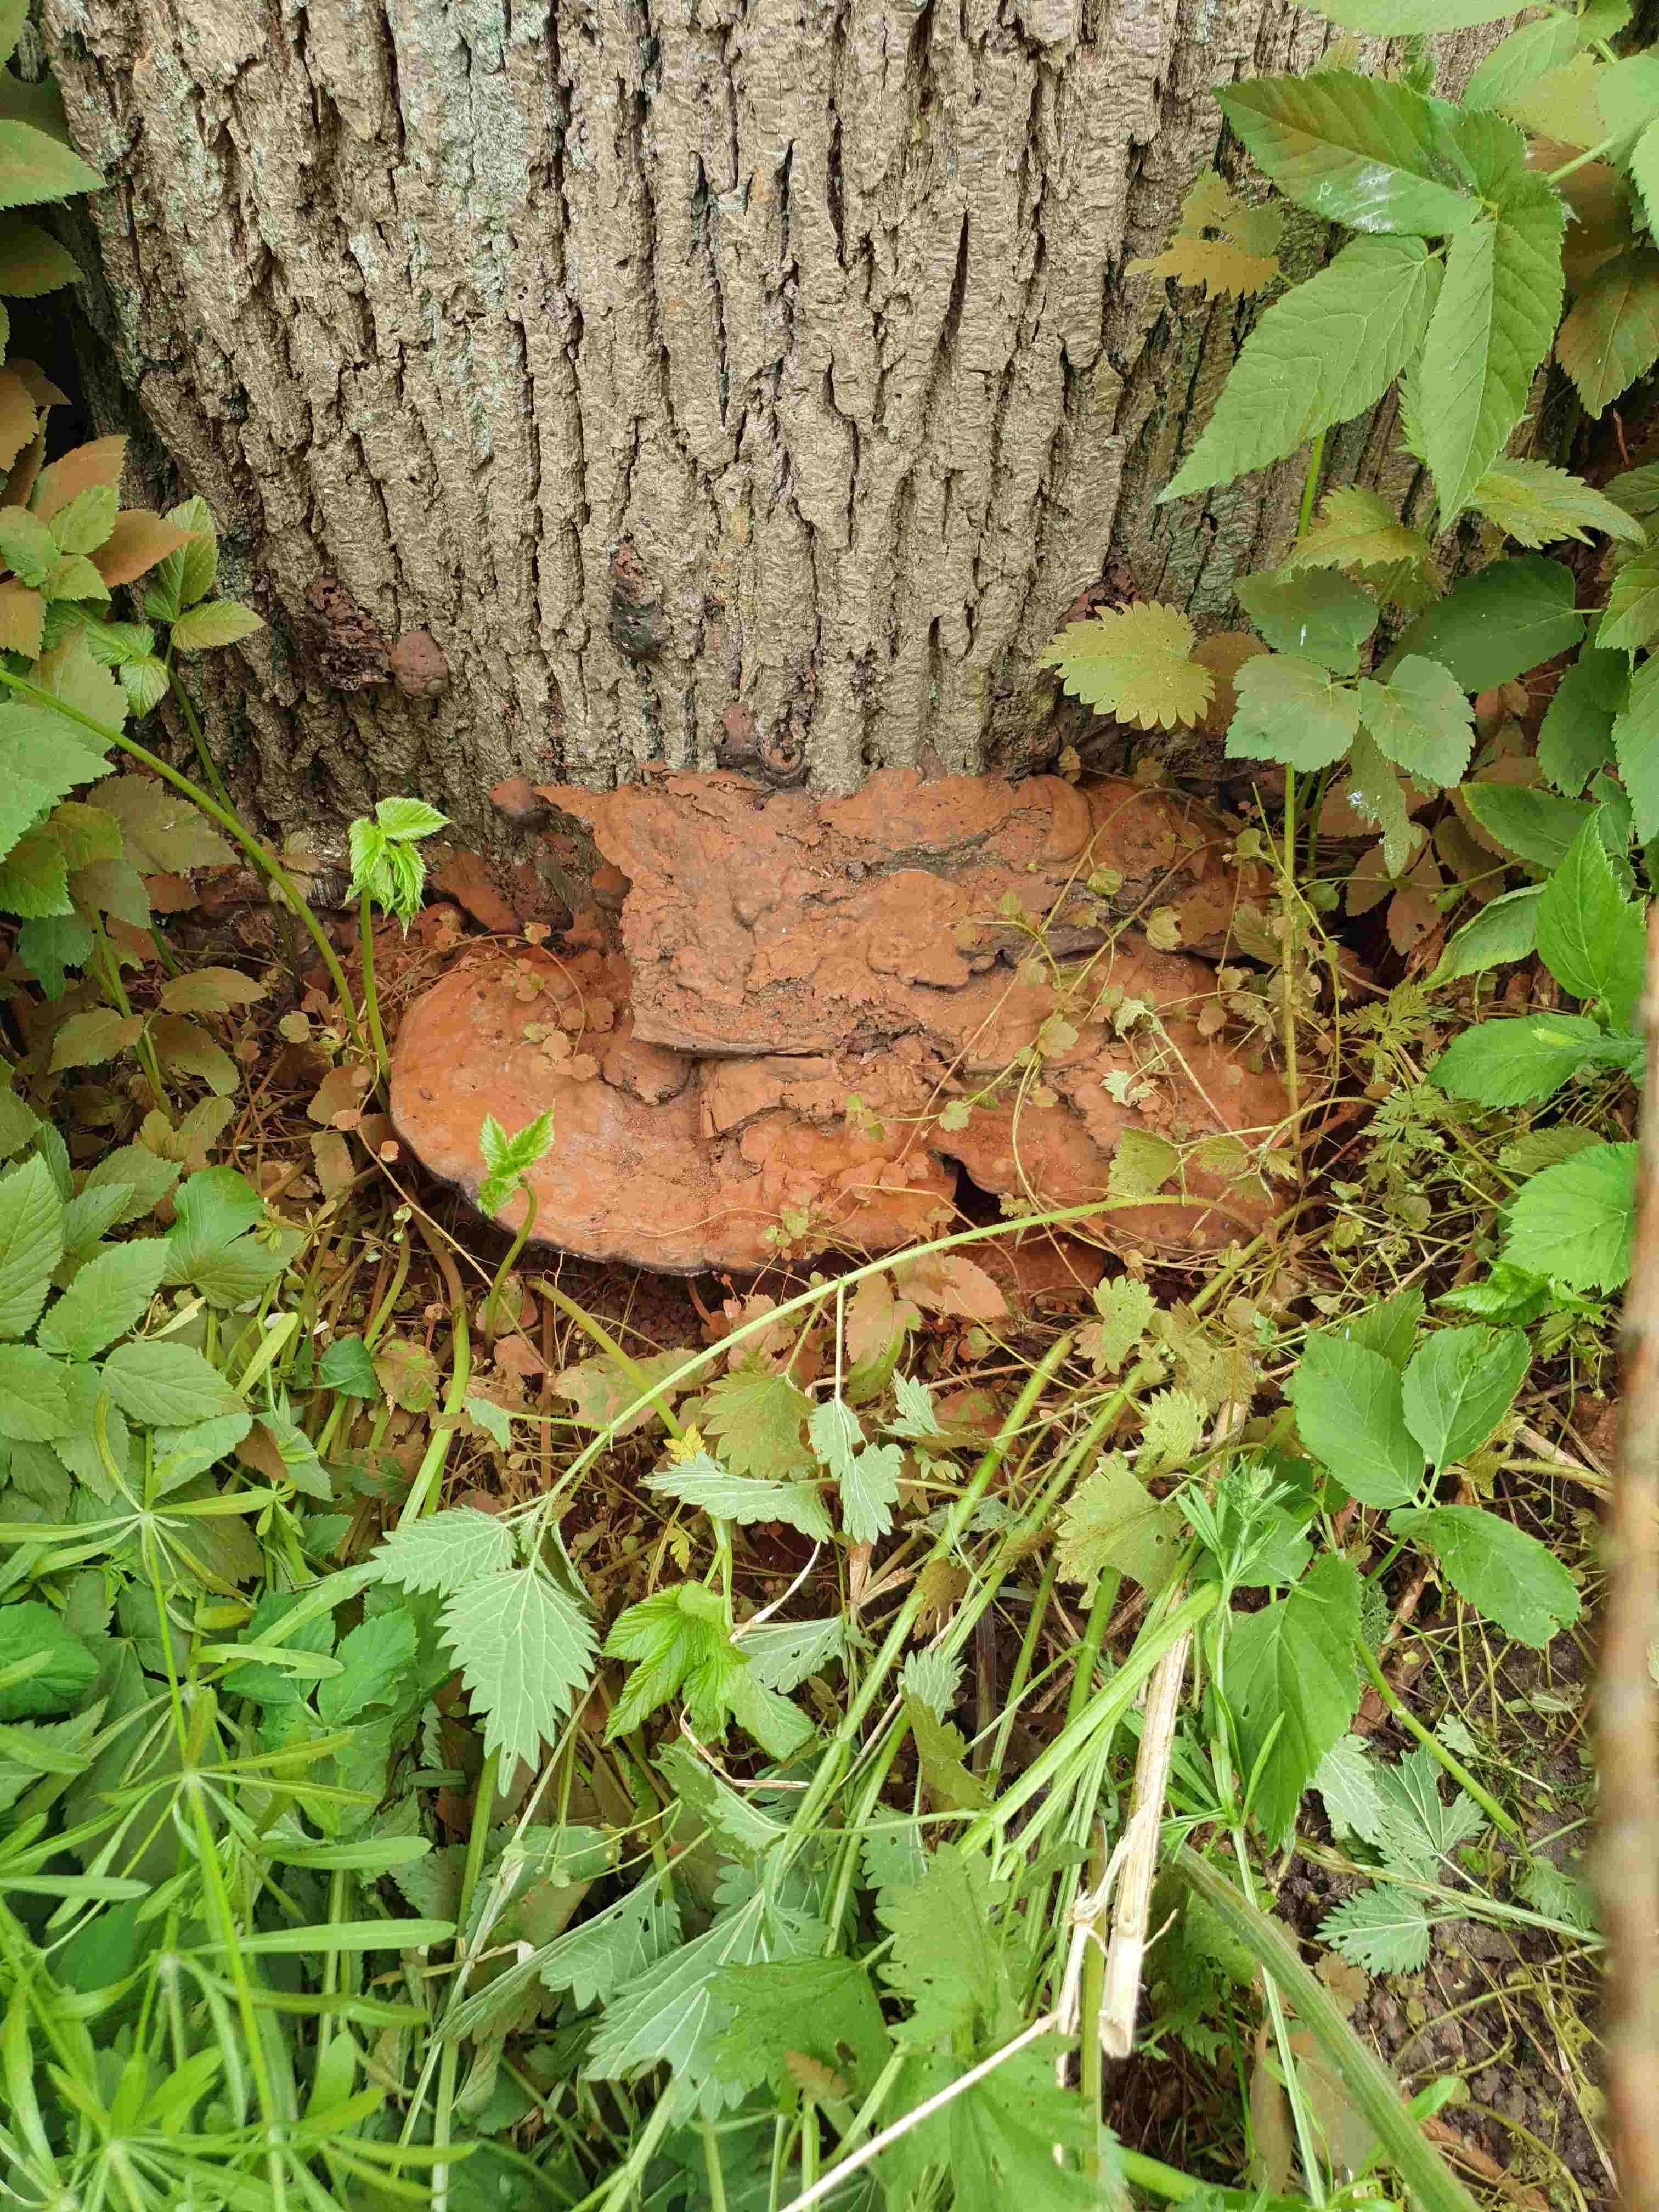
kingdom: Fungi
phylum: Basidiomycota
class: Agaricomycetes
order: Polyporales
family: Polyporaceae
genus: Ganoderma
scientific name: Ganoderma applanatum
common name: flad lakporesvamp
